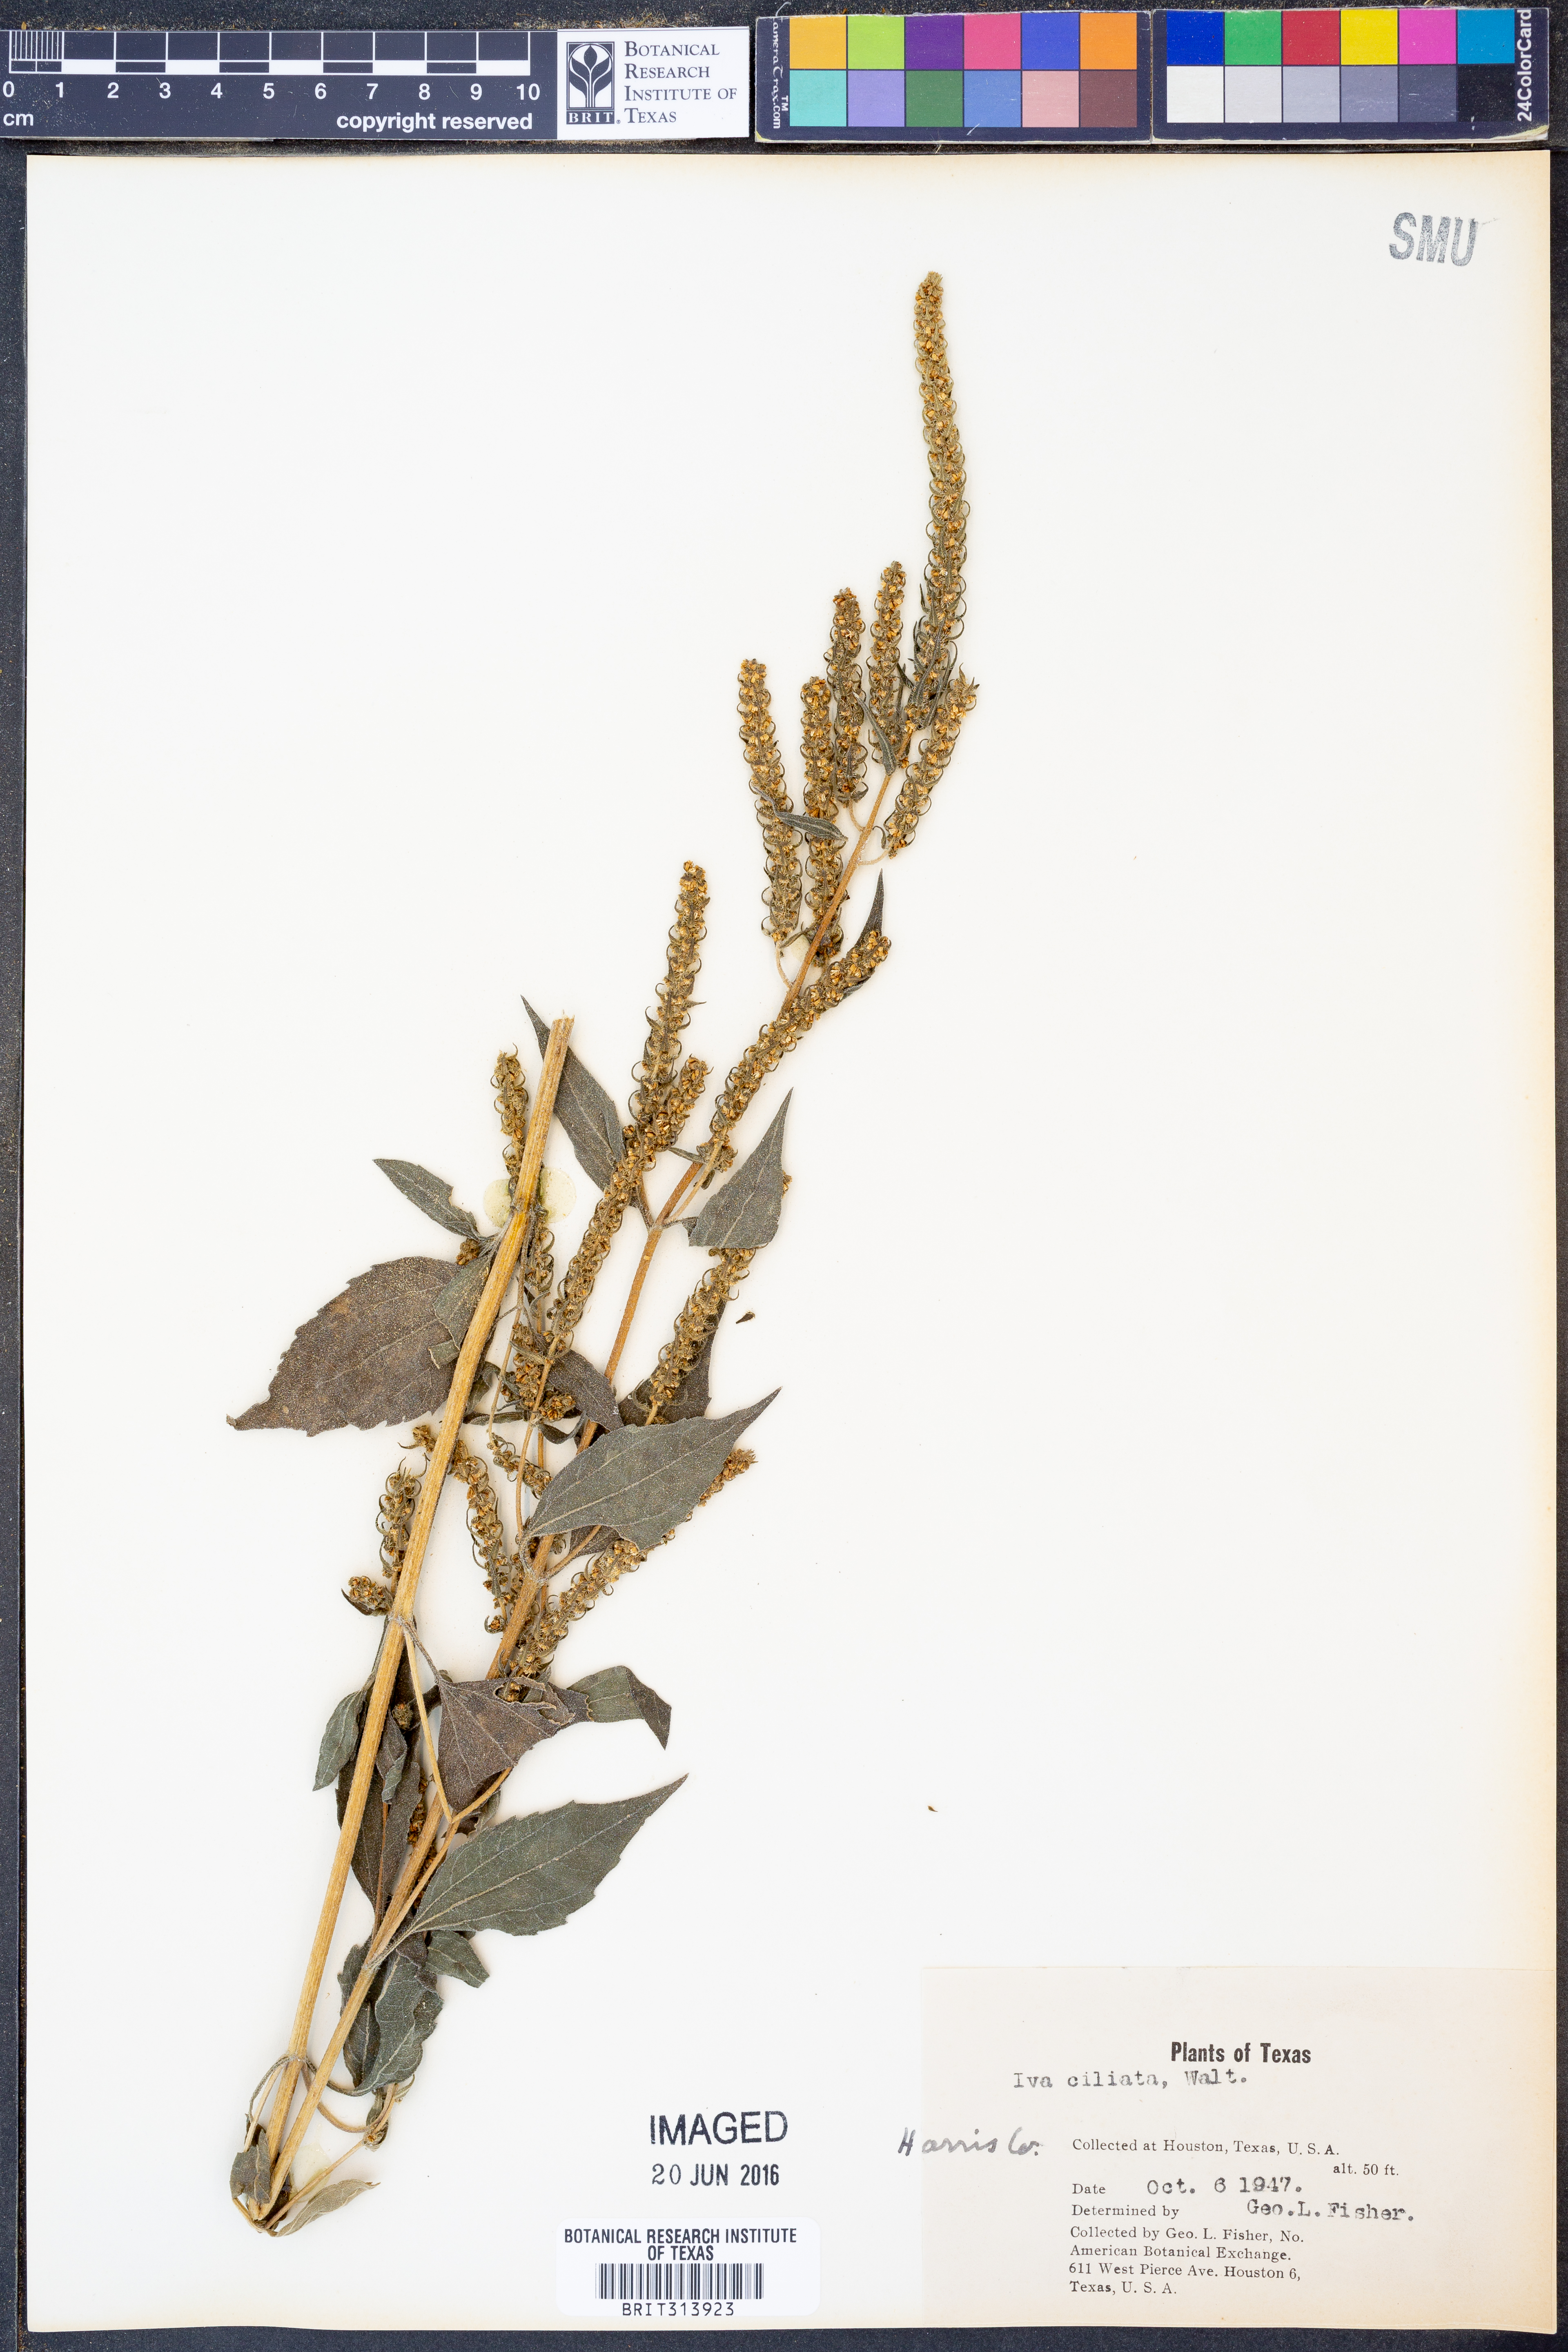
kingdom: Plantae
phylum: Tracheophyta
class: Magnoliopsida
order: Asterales
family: Asteraceae
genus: Iva
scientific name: Iva annua
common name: Marsh-elder
